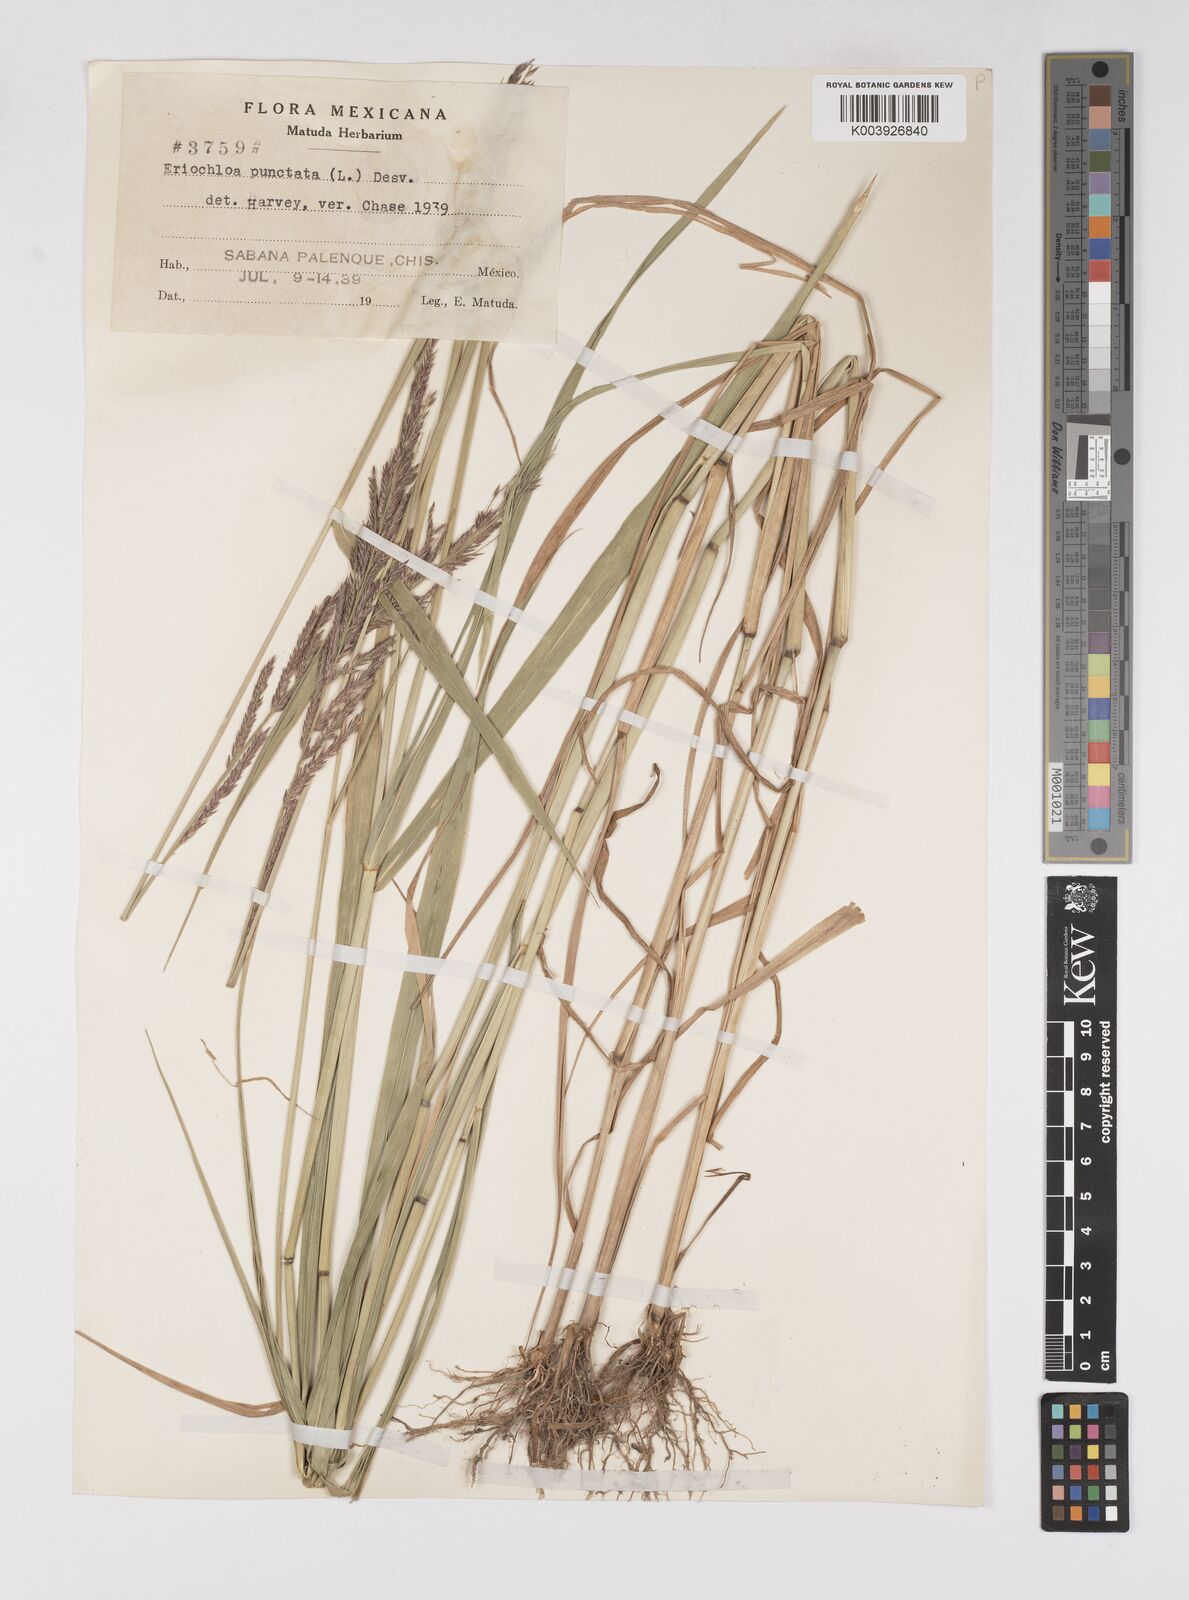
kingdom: Plantae
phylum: Tracheophyta
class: Liliopsida
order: Poales
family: Poaceae
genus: Eriochloa
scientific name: Eriochloa punctata
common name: Louisiana cupgrass
